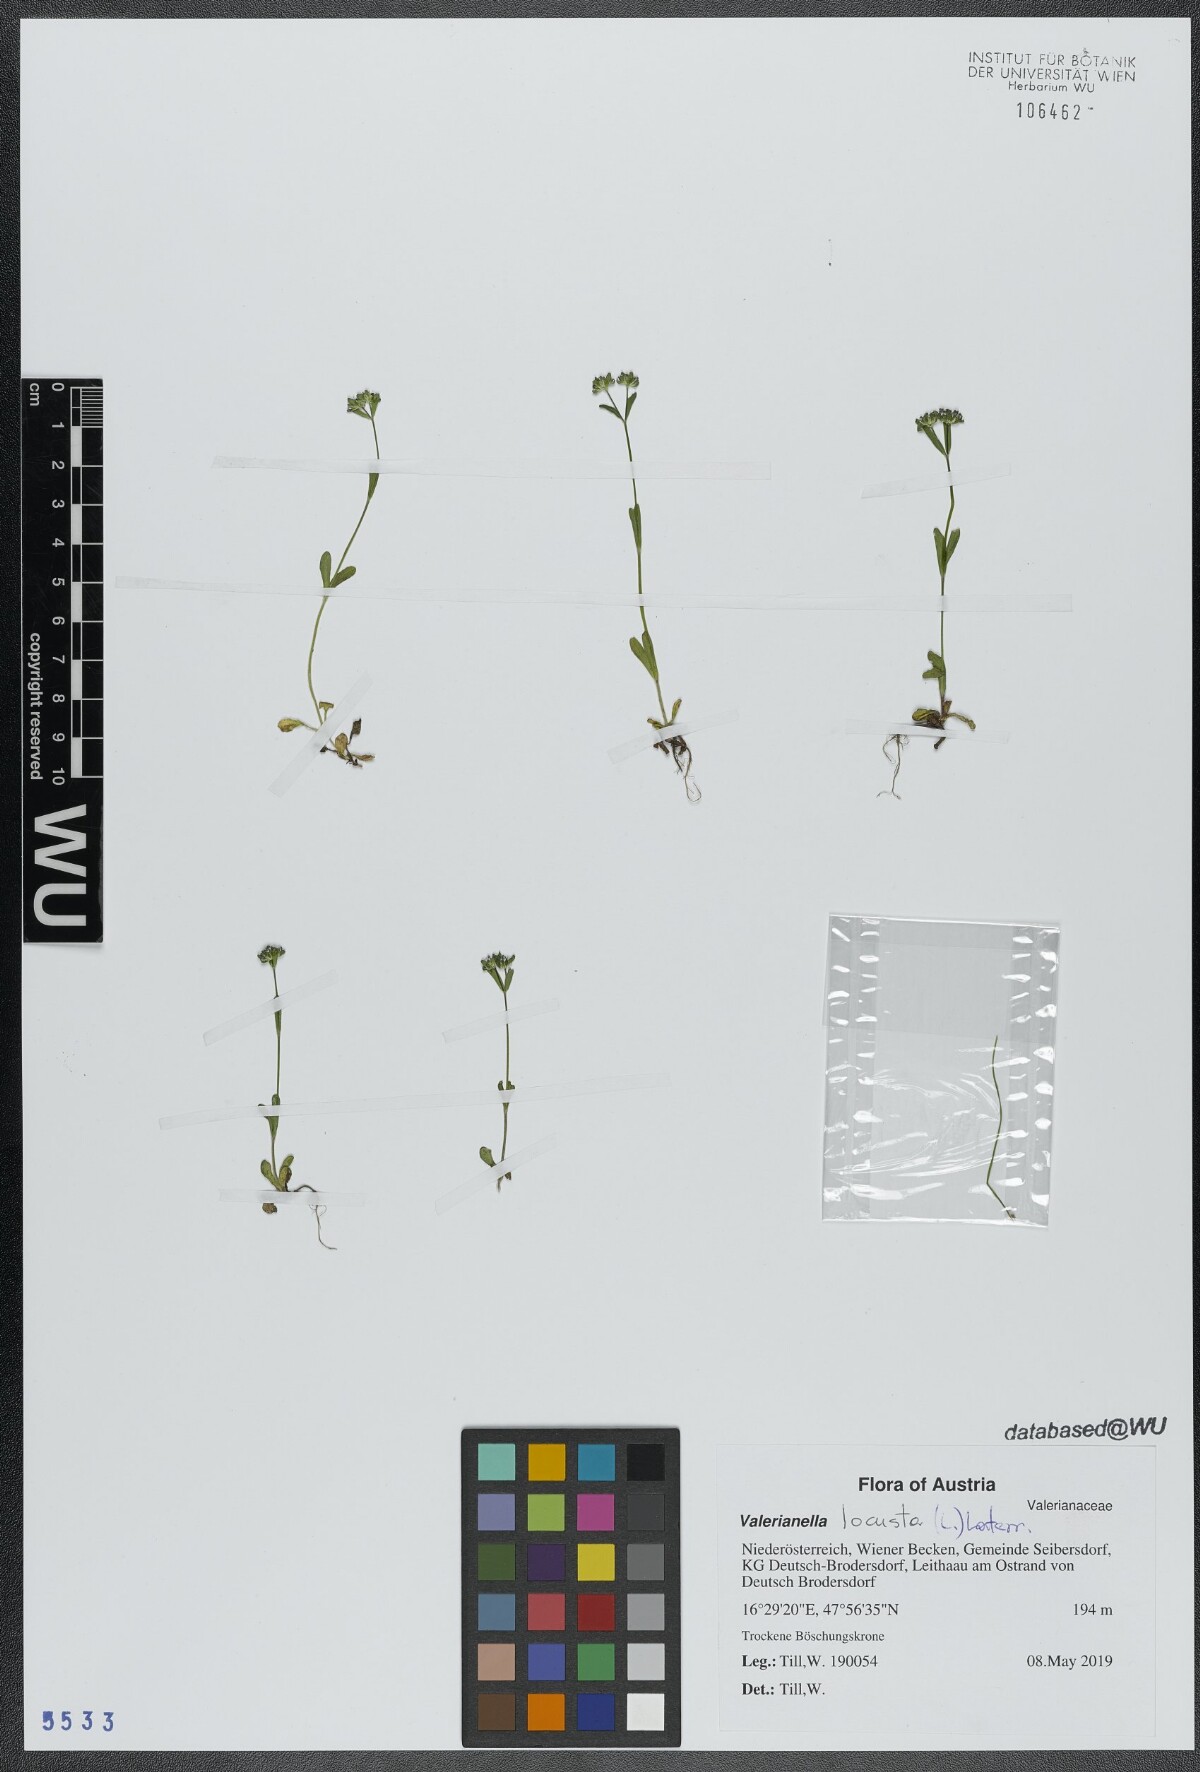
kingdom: Plantae
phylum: Tracheophyta
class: Magnoliopsida
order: Dipsacales
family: Caprifoliaceae
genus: Valerianella
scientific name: Valerianella locusta
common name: Common cornsalad
